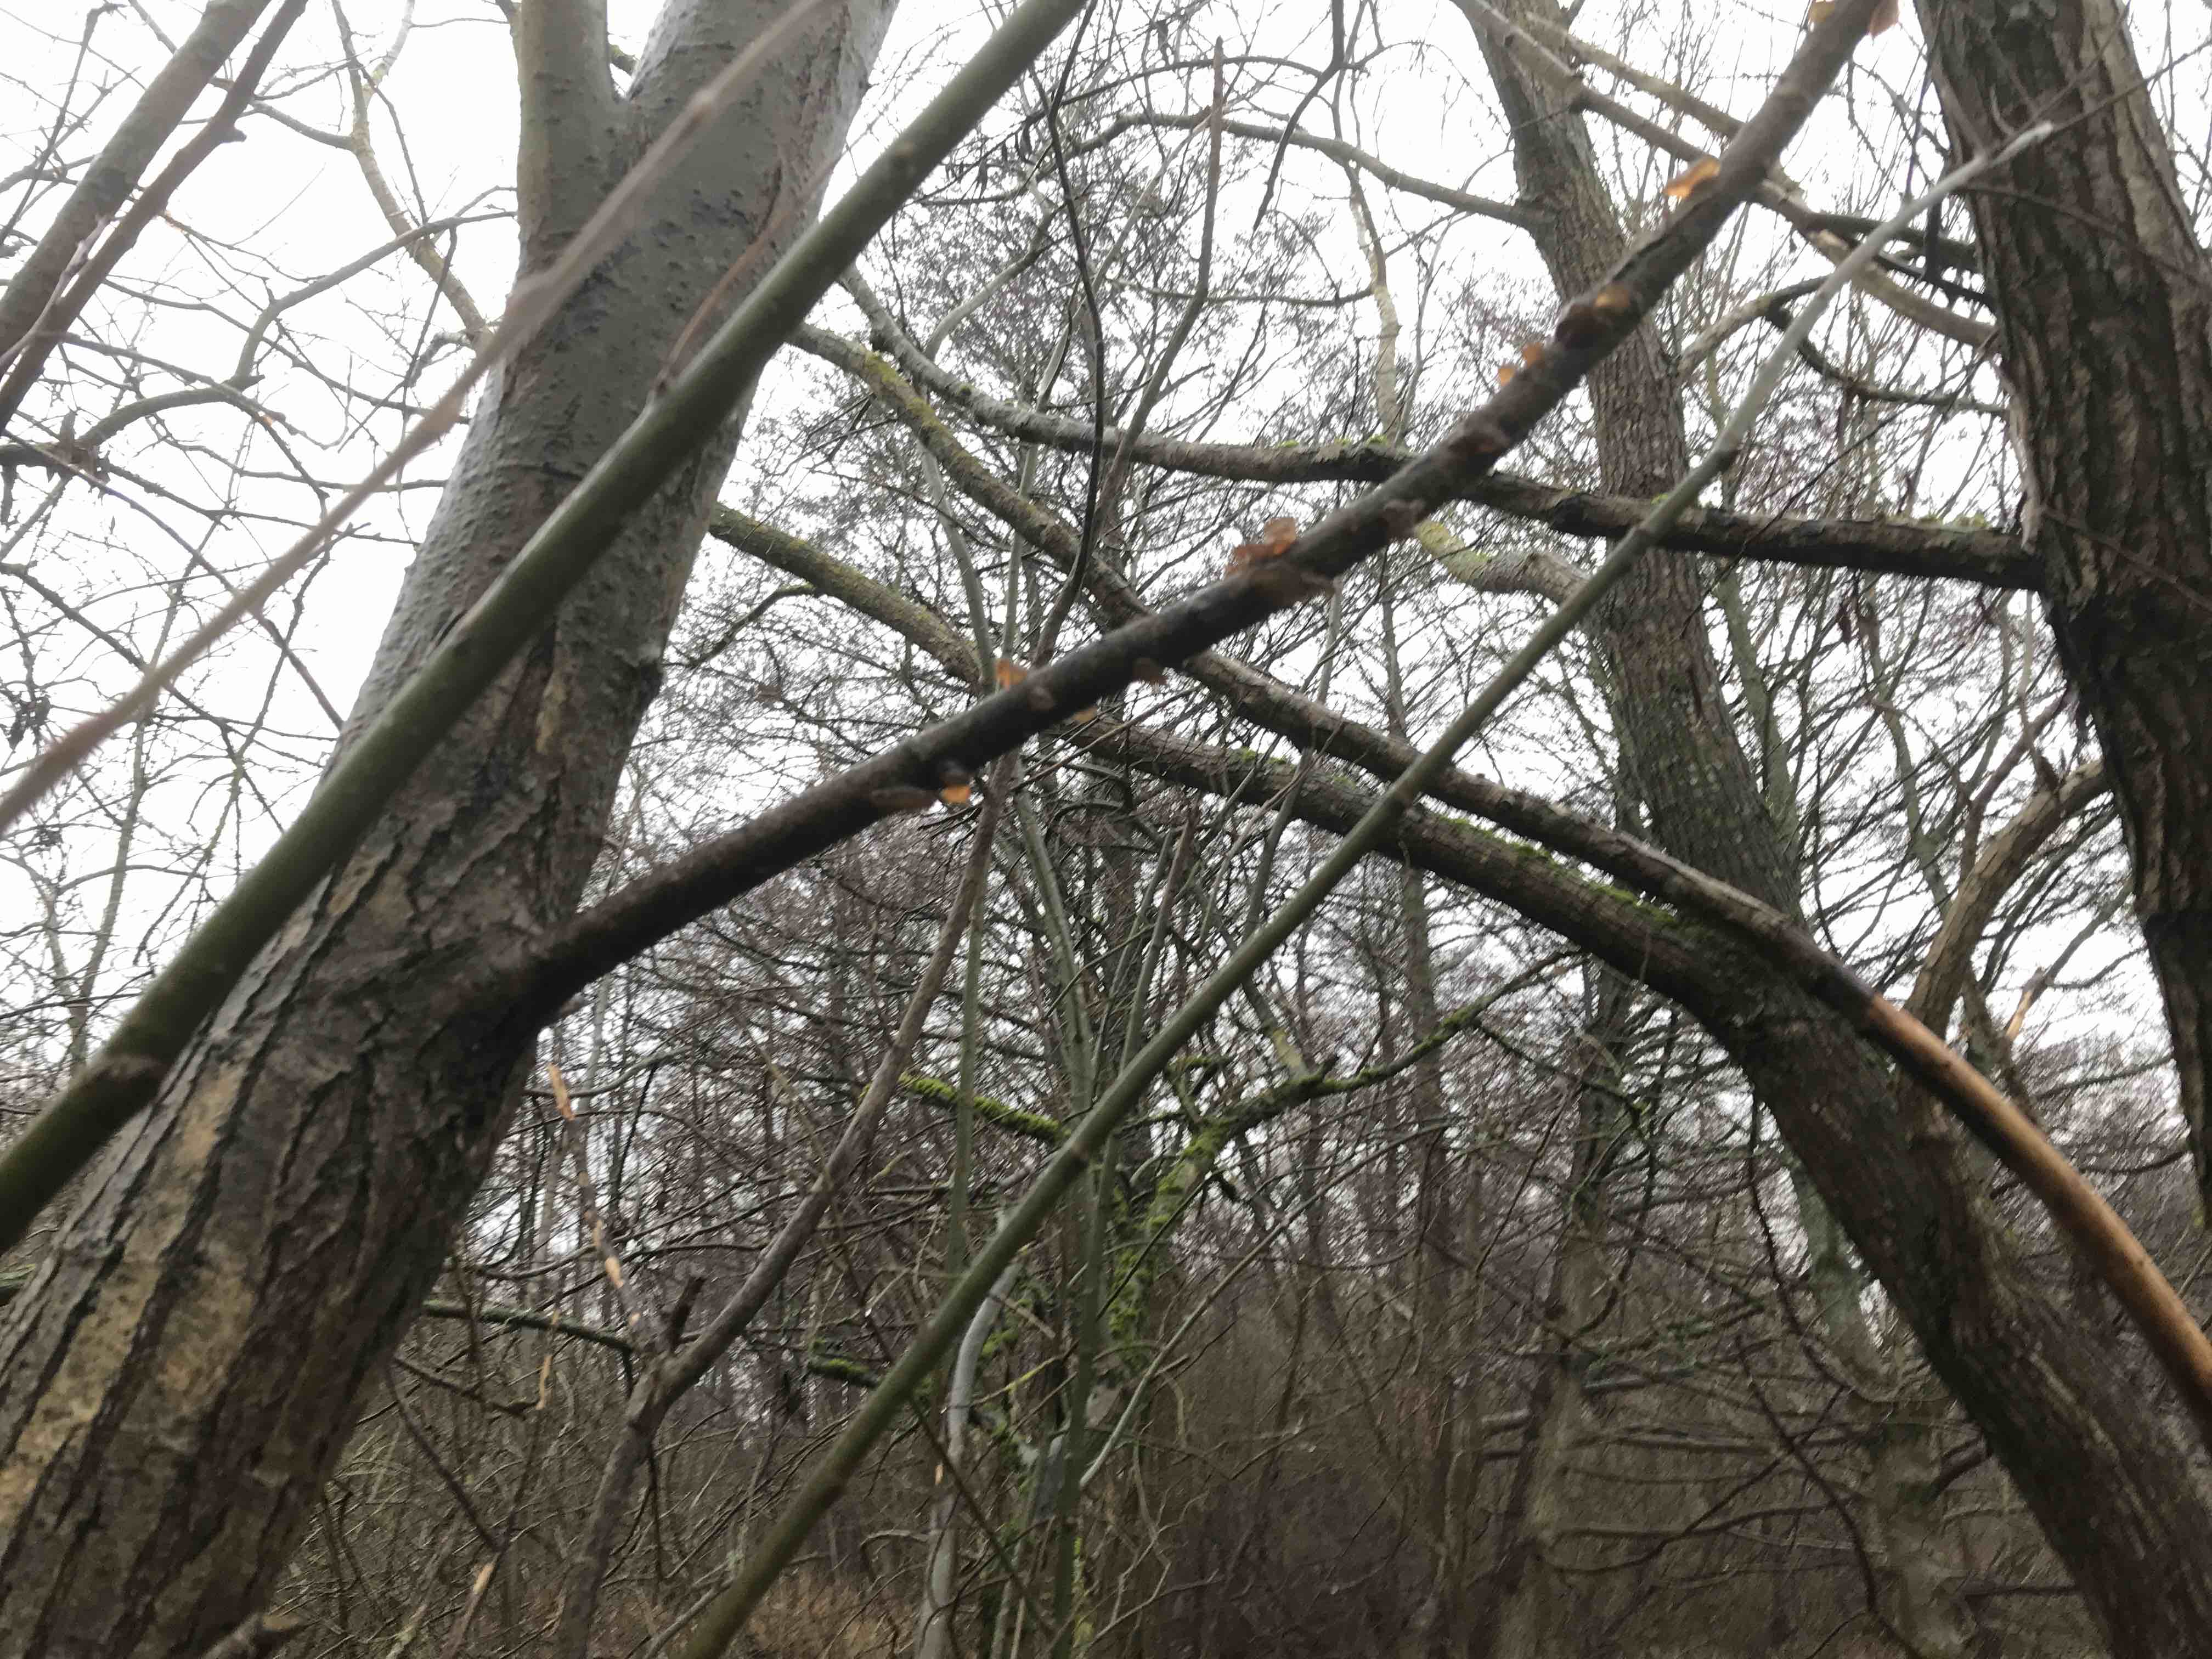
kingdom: Fungi
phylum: Basidiomycota
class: Agaricomycetes
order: Auriculariales
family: Auriculariaceae
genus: Exidia
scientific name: Exidia recisa
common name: pile-bævretop
